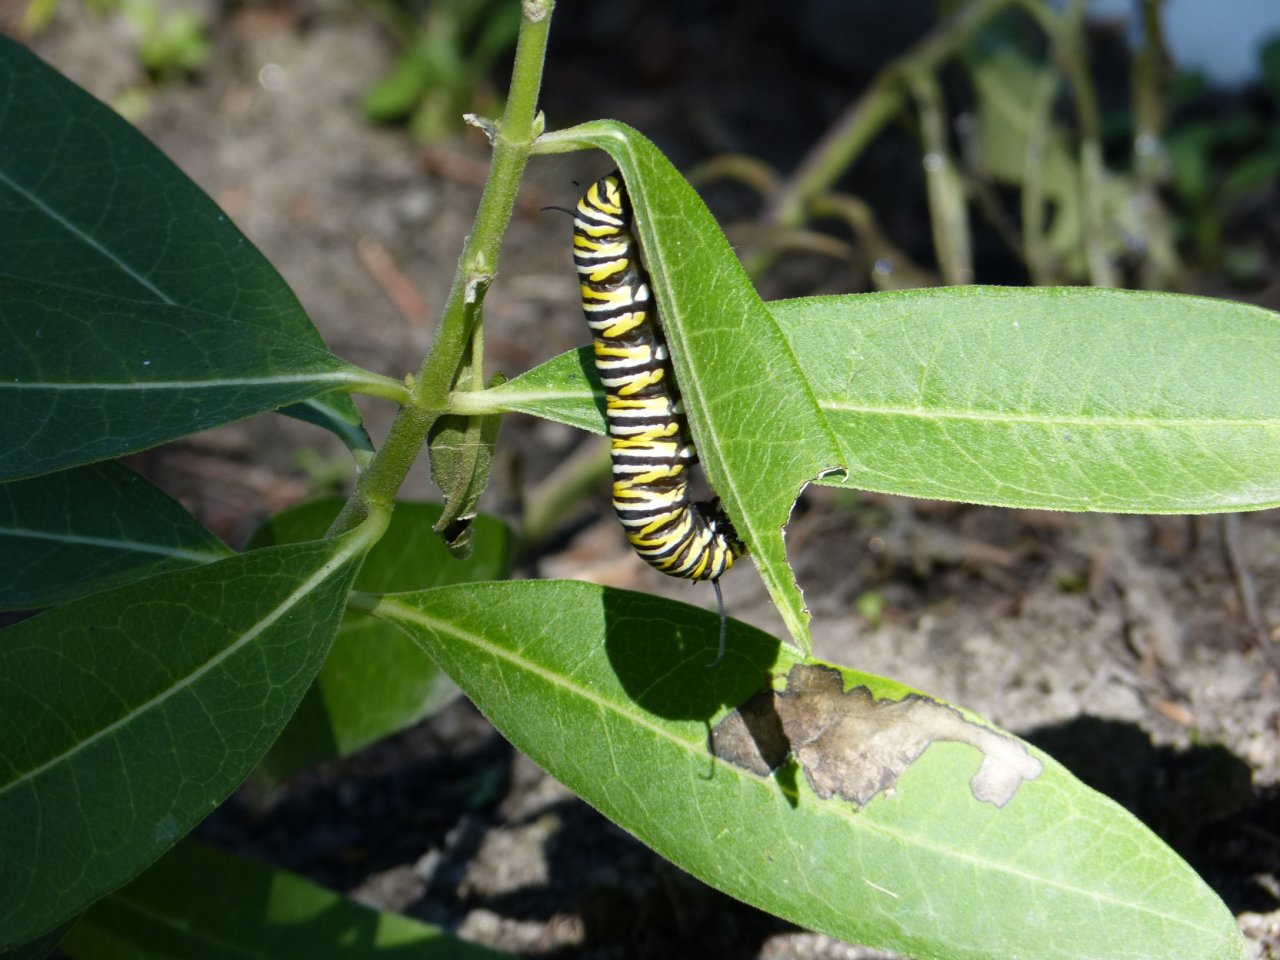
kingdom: Animalia
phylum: Arthropoda
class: Insecta
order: Lepidoptera
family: Nymphalidae
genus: Danaus
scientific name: Danaus plexippus
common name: Monarch
